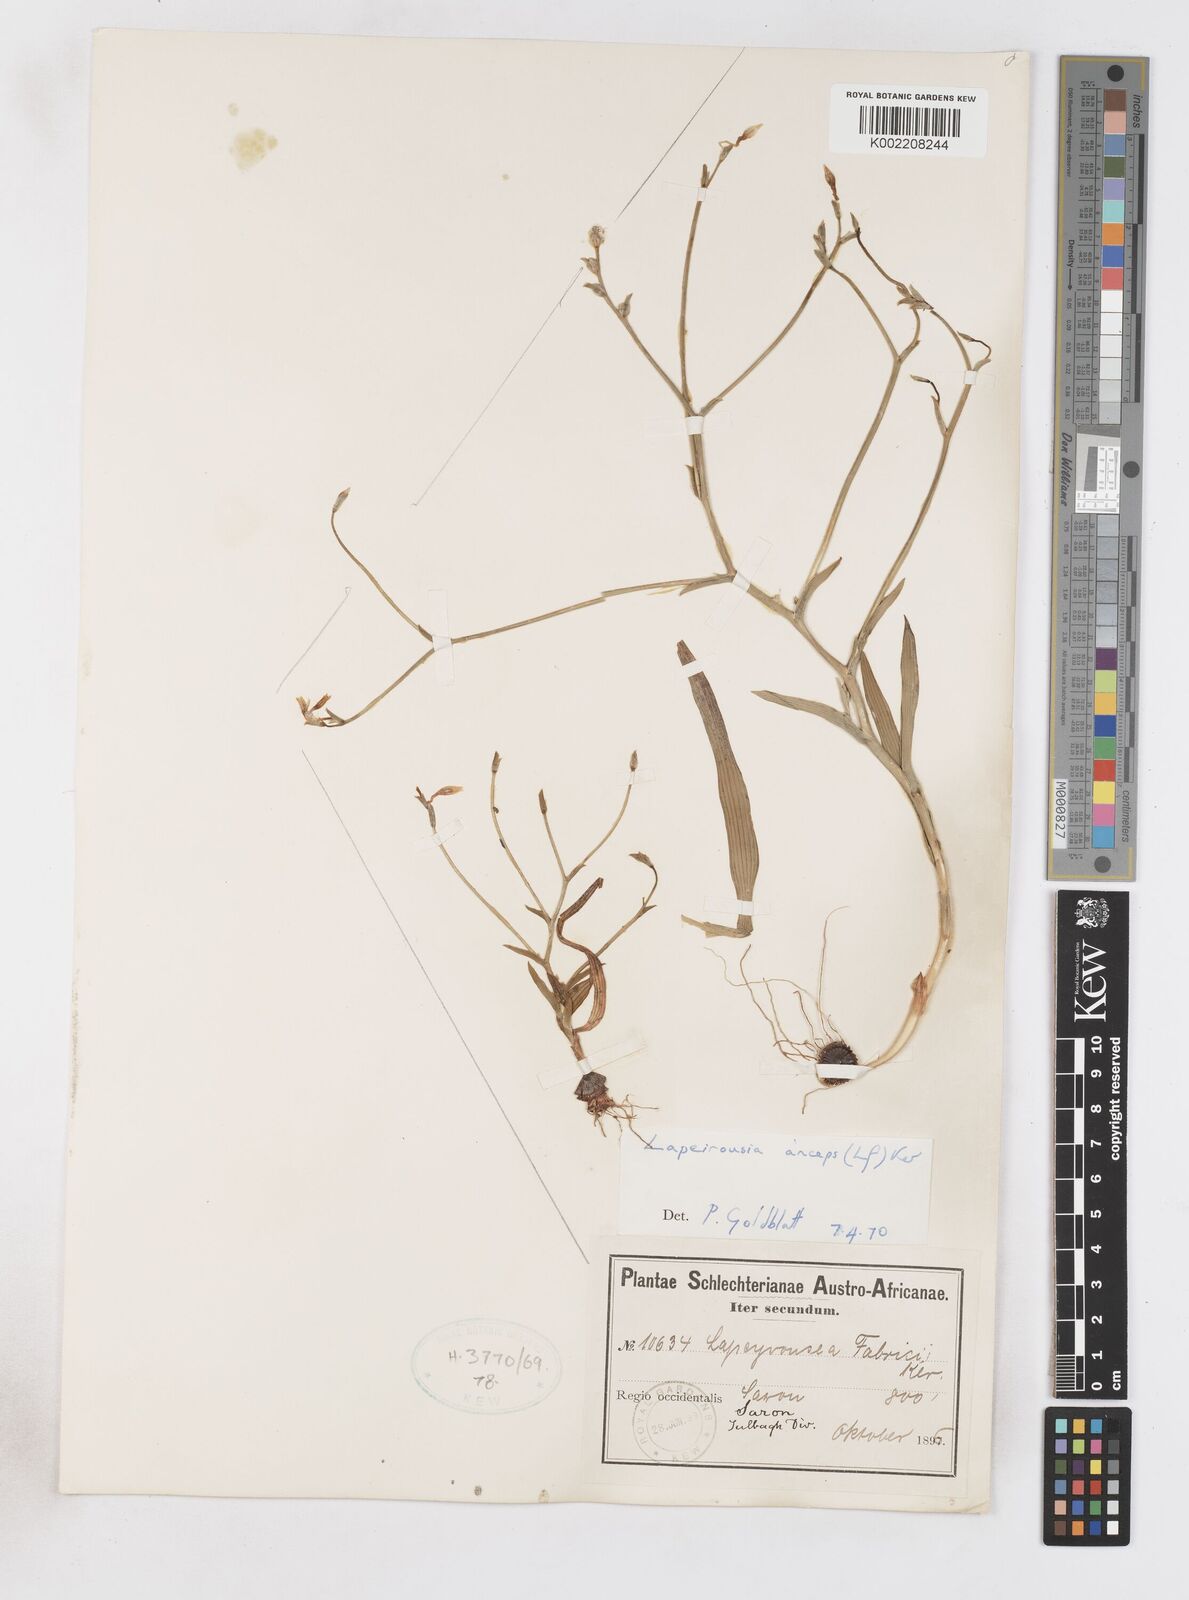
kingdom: Plantae
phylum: Tracheophyta
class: Liliopsida
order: Asparagales
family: Iridaceae
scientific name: Iridaceae
